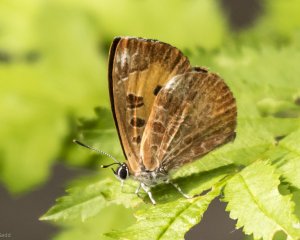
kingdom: Animalia
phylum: Arthropoda
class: Insecta
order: Lepidoptera
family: Lycaenidae
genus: Feniseca
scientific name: Feniseca tarquinius
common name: Harvester
